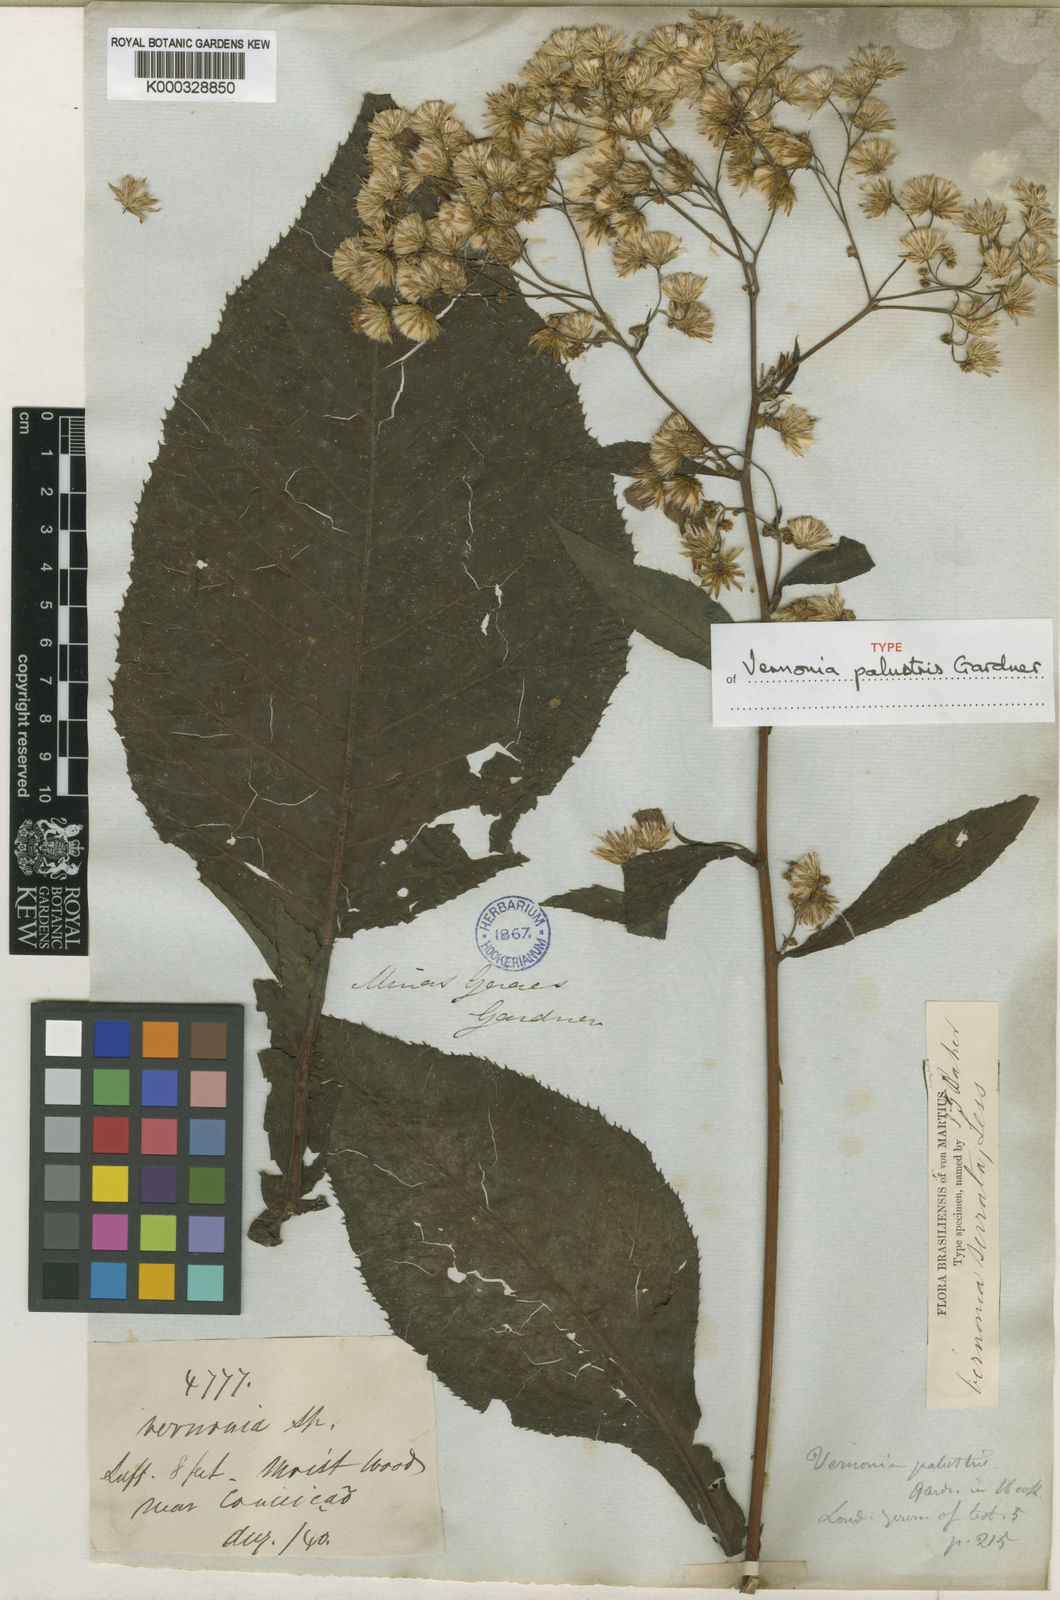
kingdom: Plantae
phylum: Tracheophyta
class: Magnoliopsida
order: Asterales
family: Asteraceae
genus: Dasyanthina
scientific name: Dasyanthina palustris
